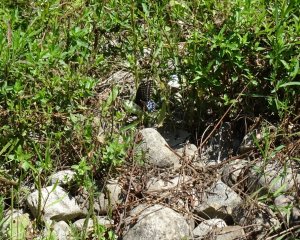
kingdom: Animalia
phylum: Arthropoda
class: Insecta
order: Lepidoptera
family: Papilionidae
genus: Papilio
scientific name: Papilio polyxenes
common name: Black Swallowtail
